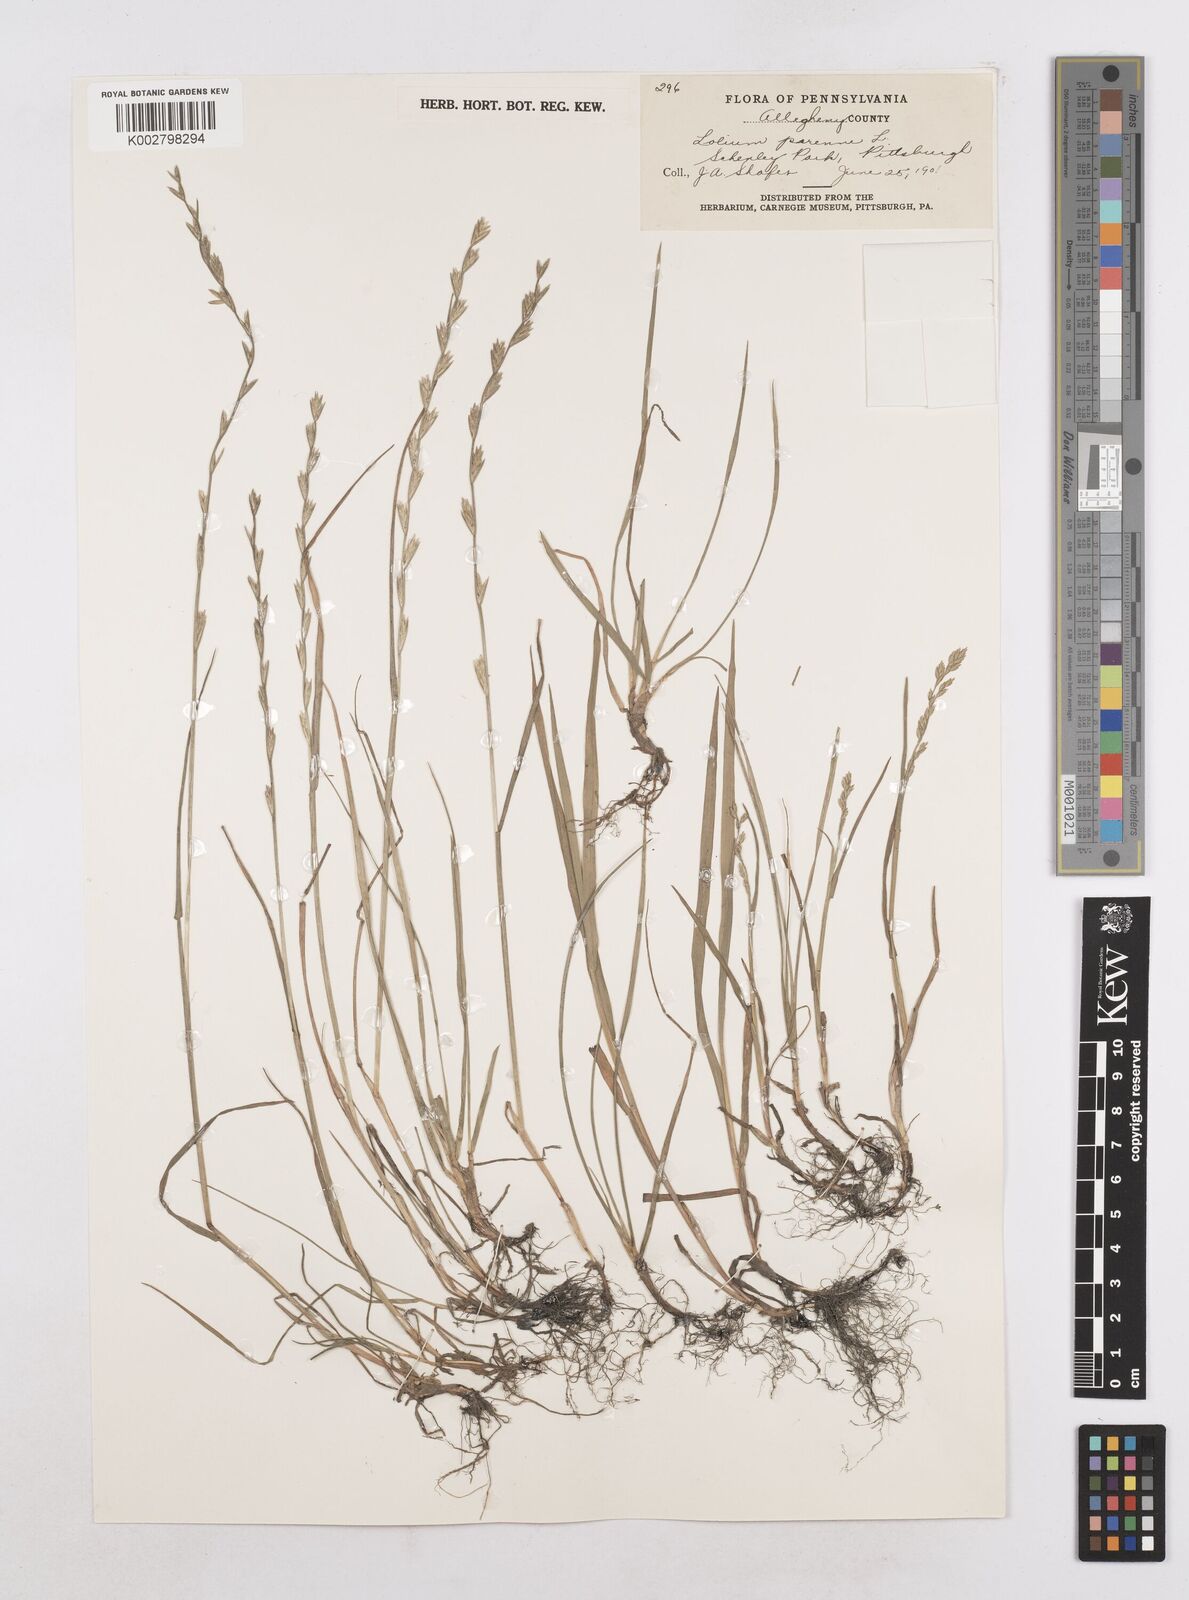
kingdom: Plantae
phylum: Tracheophyta
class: Liliopsida
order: Poales
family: Poaceae
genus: Lolium
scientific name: Lolium perenne
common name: Perennial ryegrass
